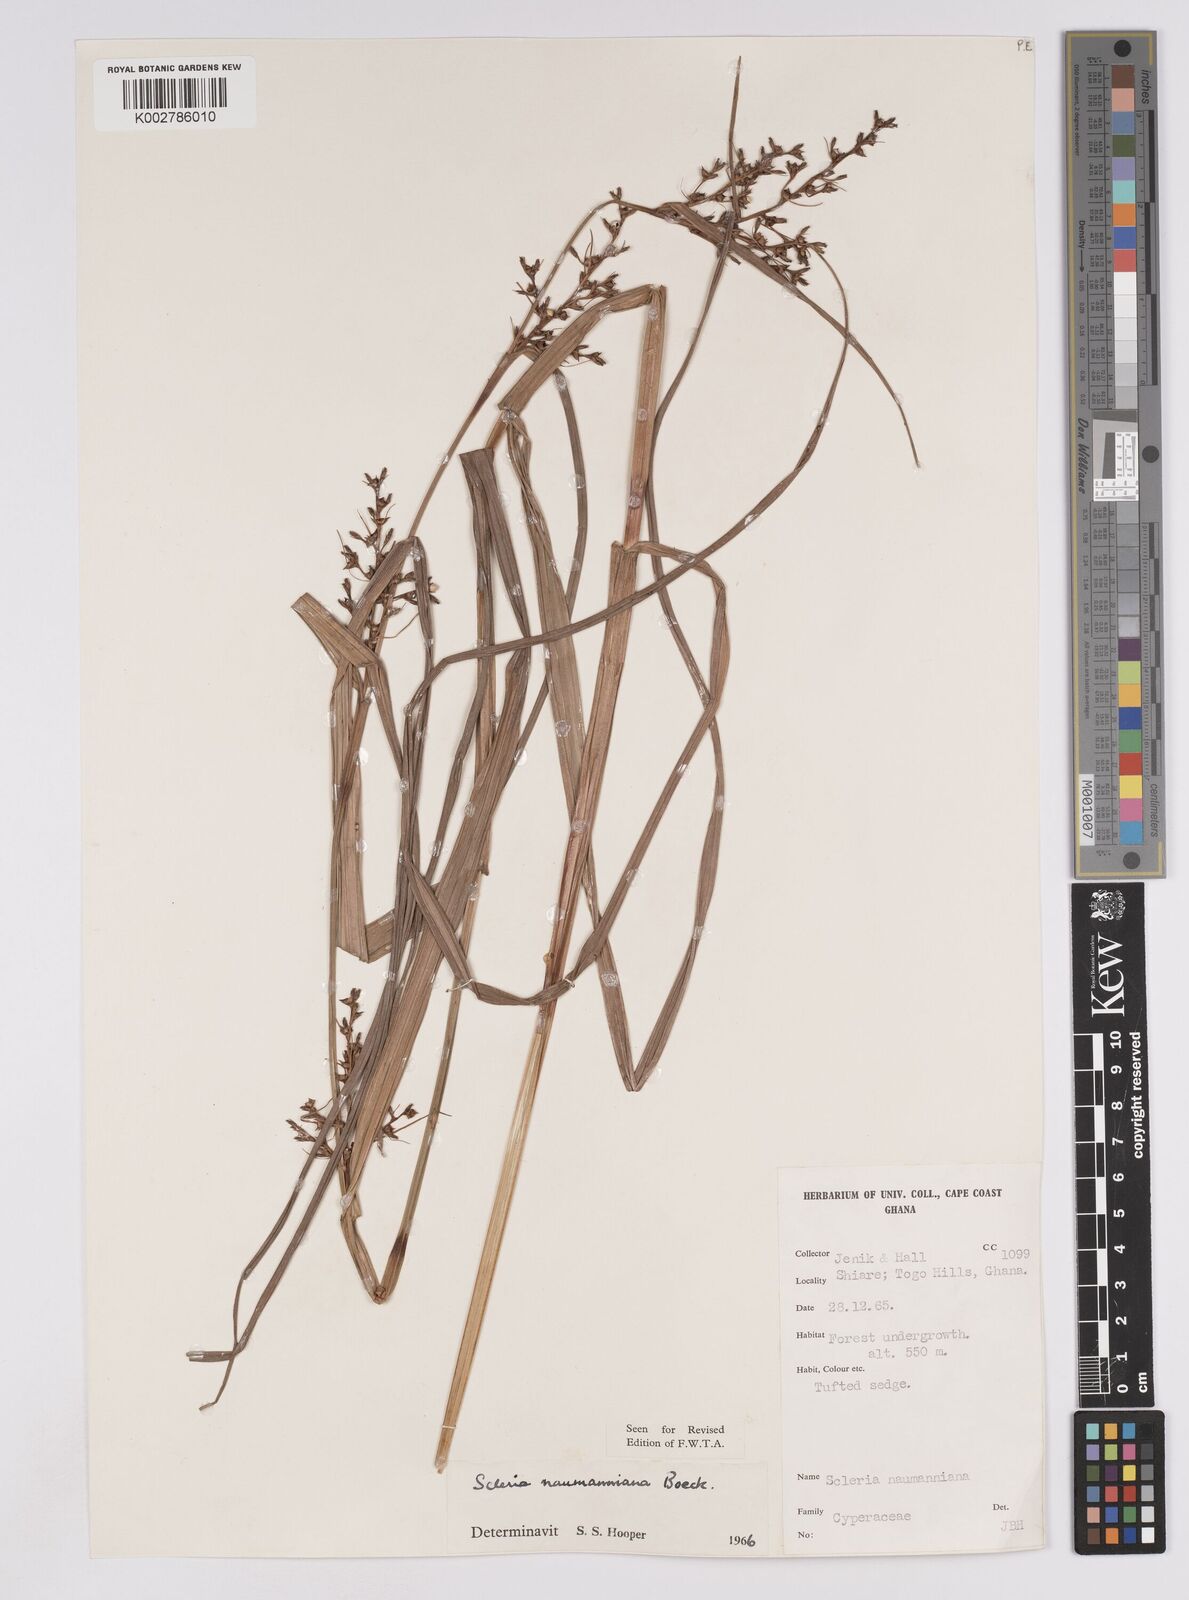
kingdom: Plantae
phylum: Tracheophyta
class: Liliopsida
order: Poales
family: Cyperaceae
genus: Scleria
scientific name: Scleria naumanniana
